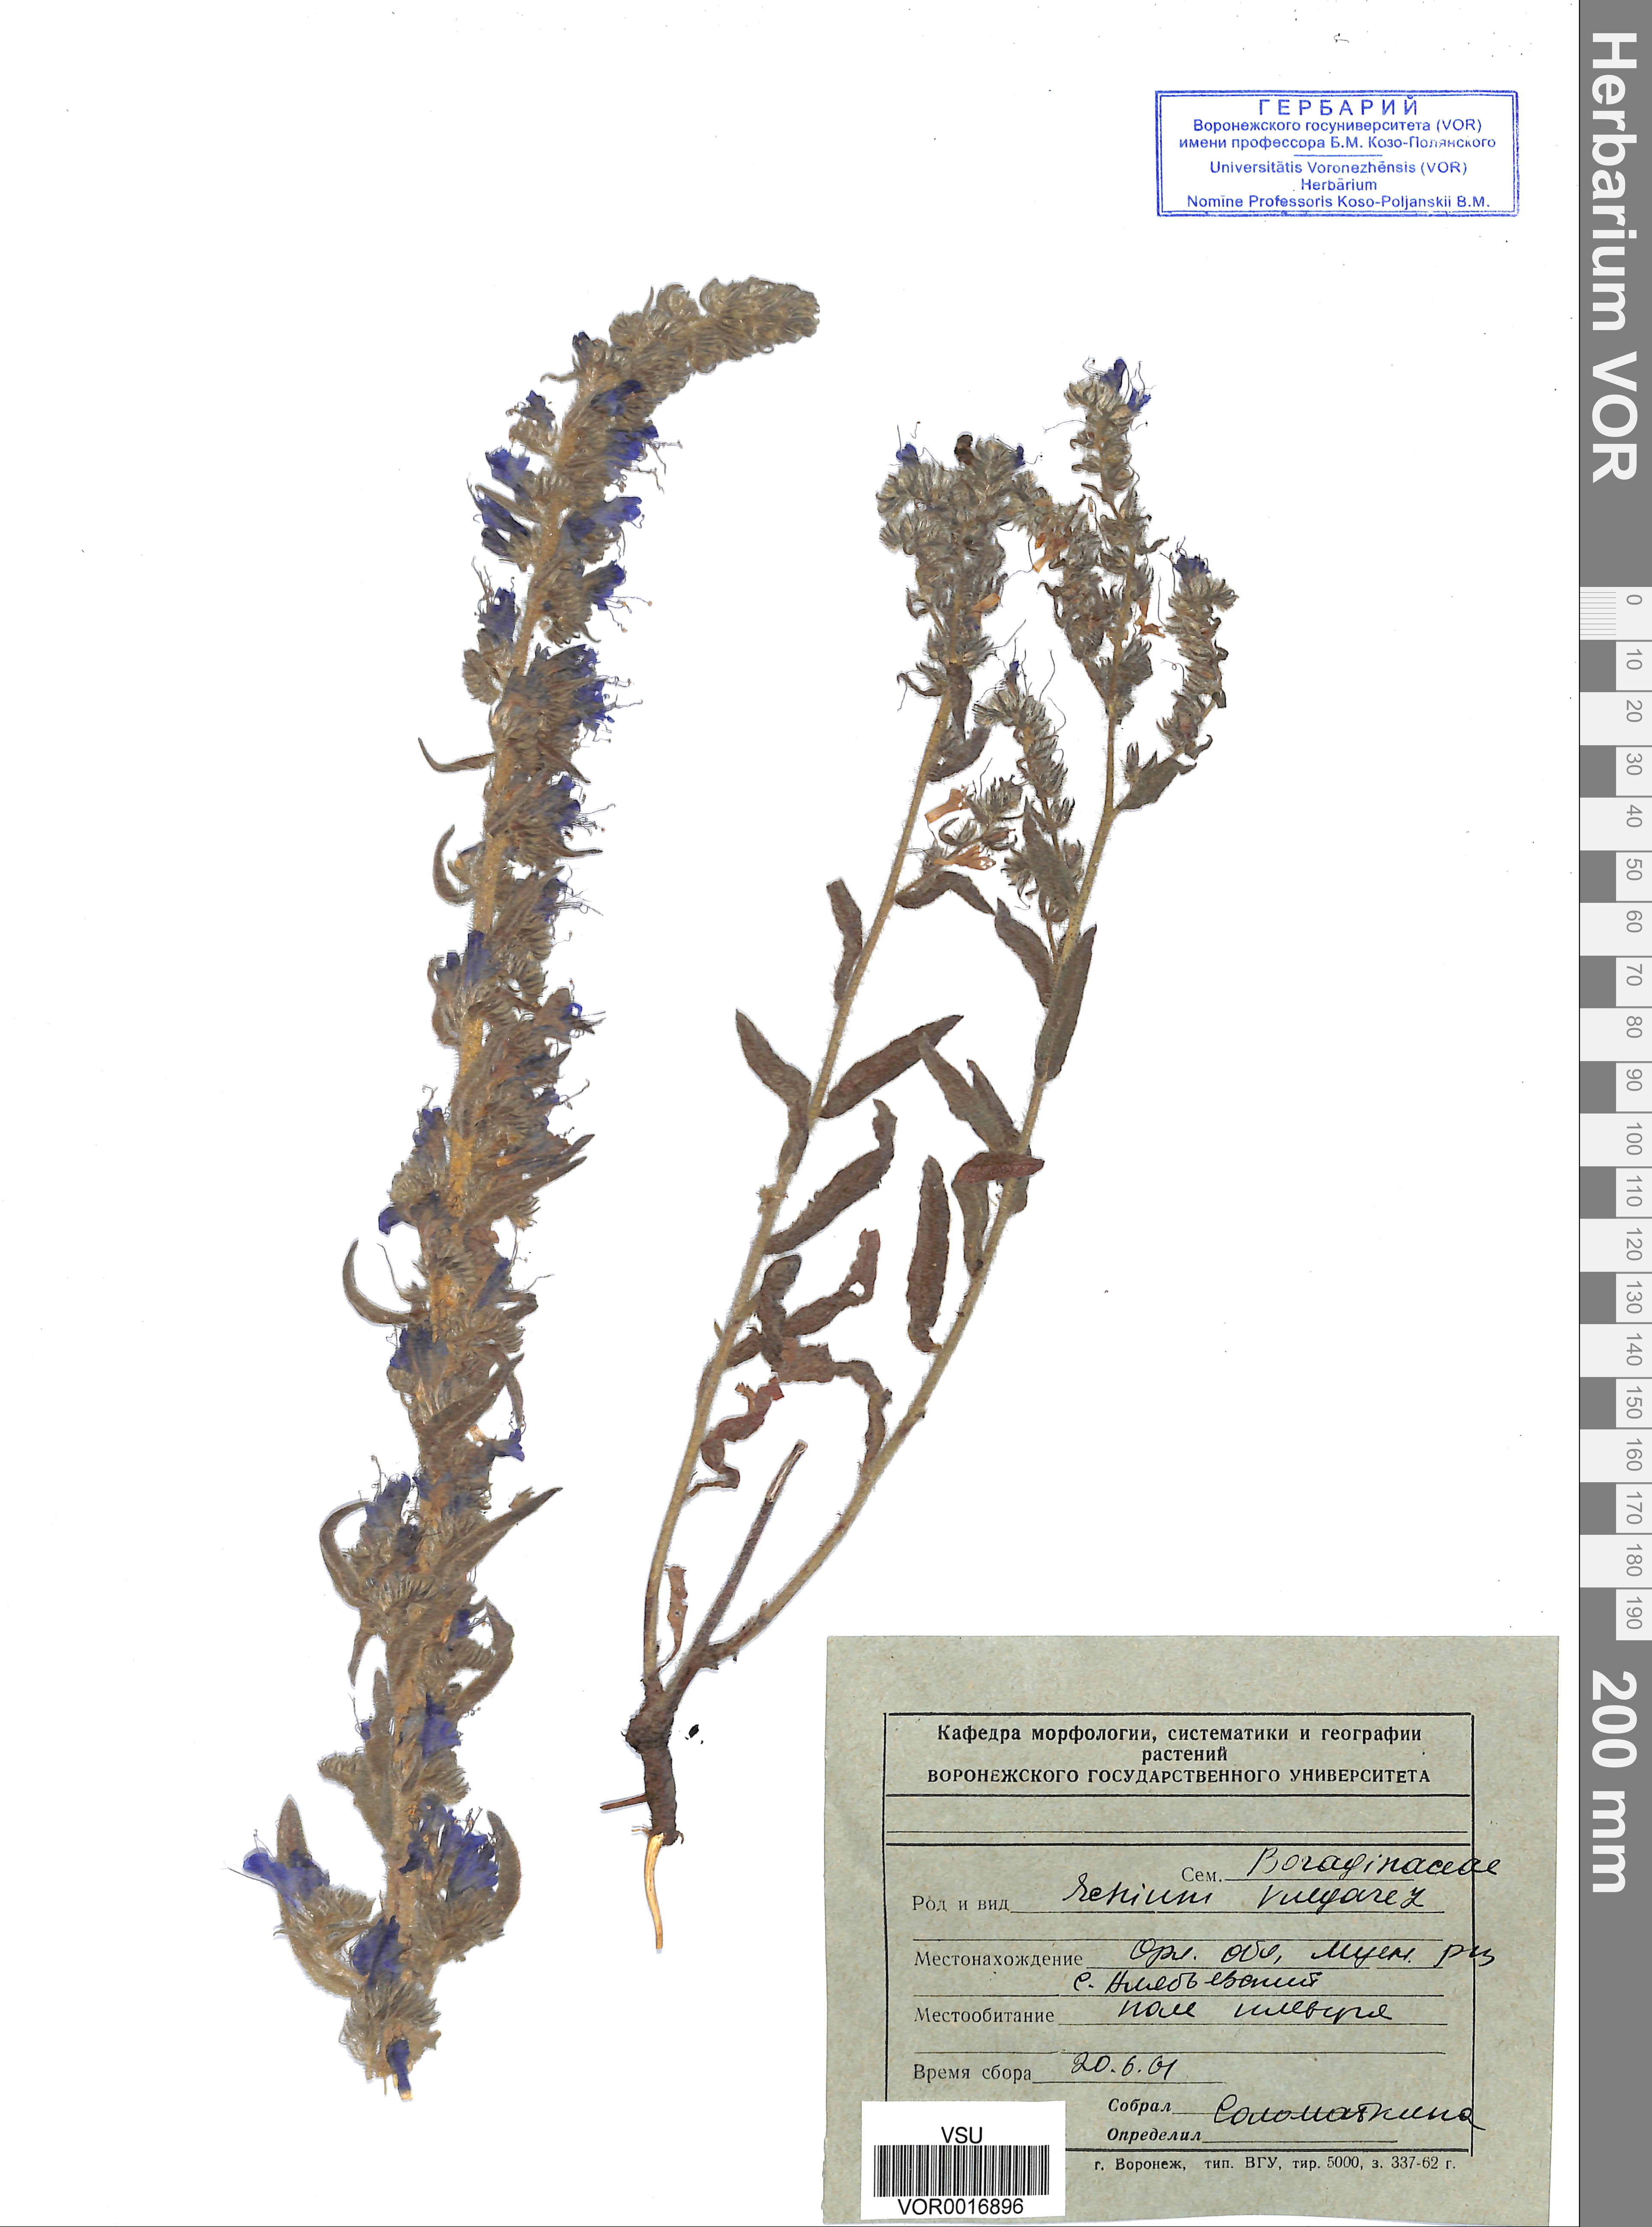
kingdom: Plantae
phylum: Tracheophyta
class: Magnoliopsida
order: Boraginales
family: Boraginaceae
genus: Echium
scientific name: Echium vulgare
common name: Common viper's bugloss
